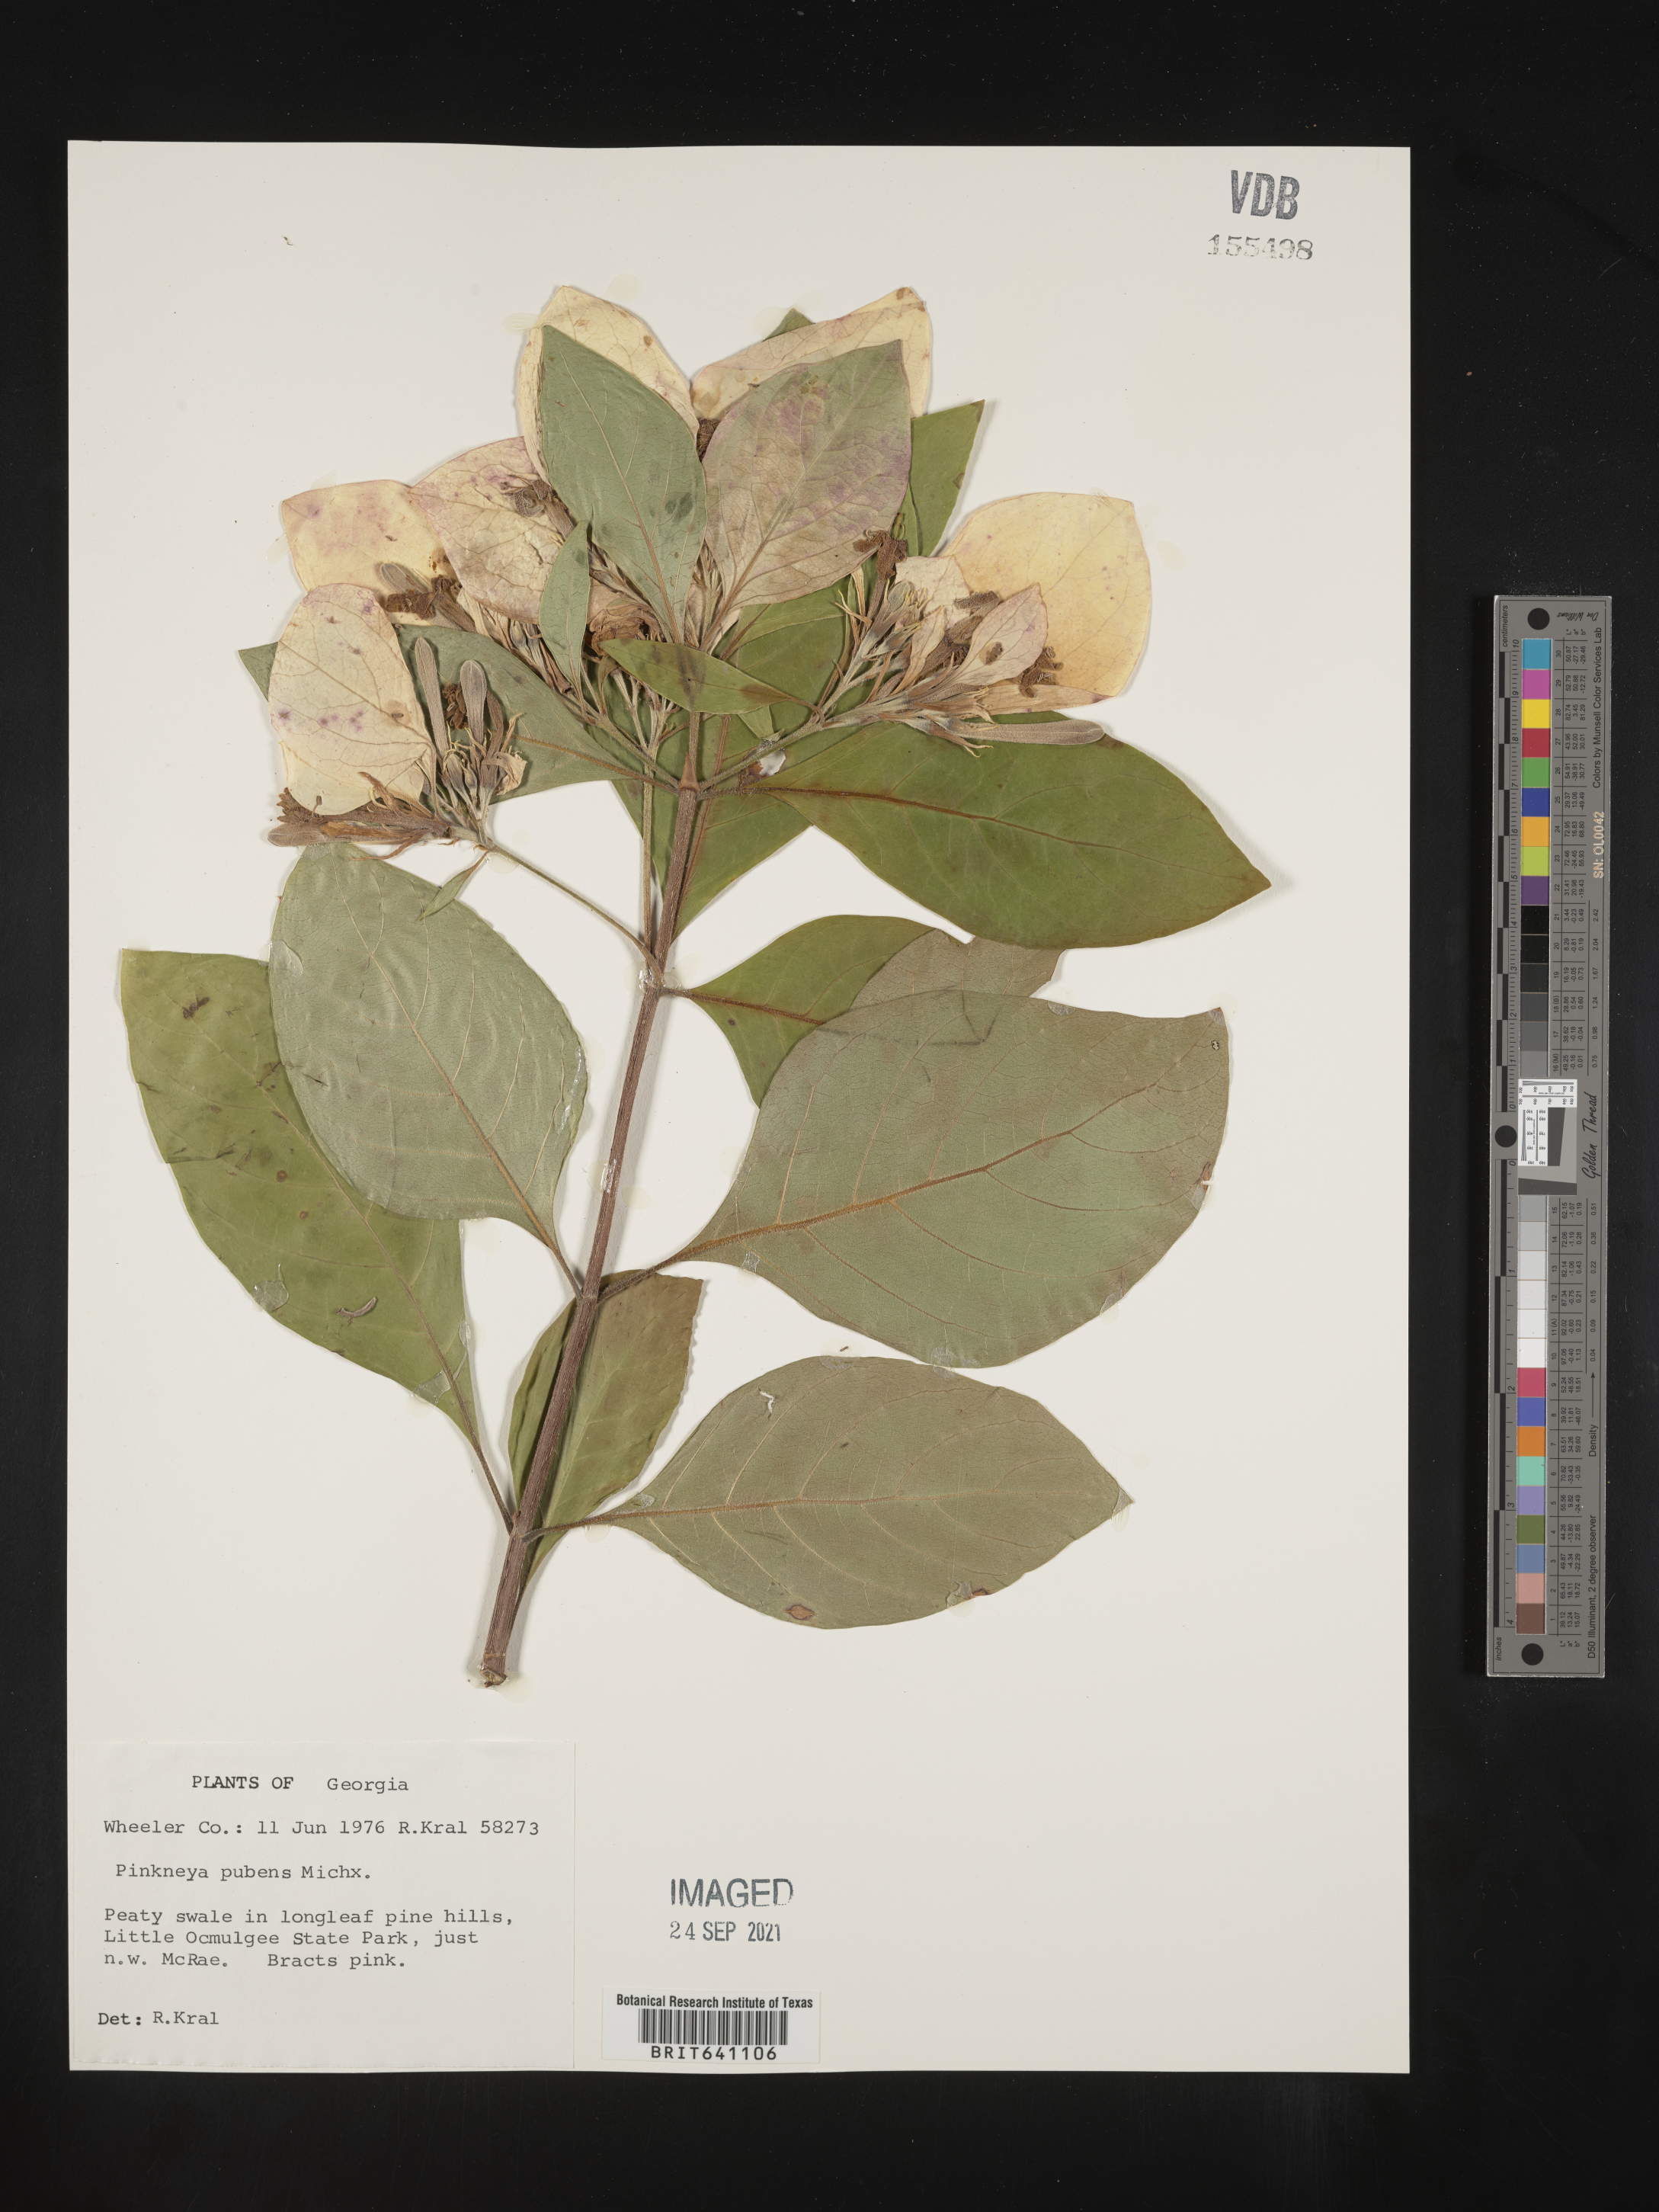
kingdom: Plantae
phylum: Tracheophyta
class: Magnoliopsida
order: Gentianales
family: Rubiaceae
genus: Pinckneya
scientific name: Pinckneya pubens
